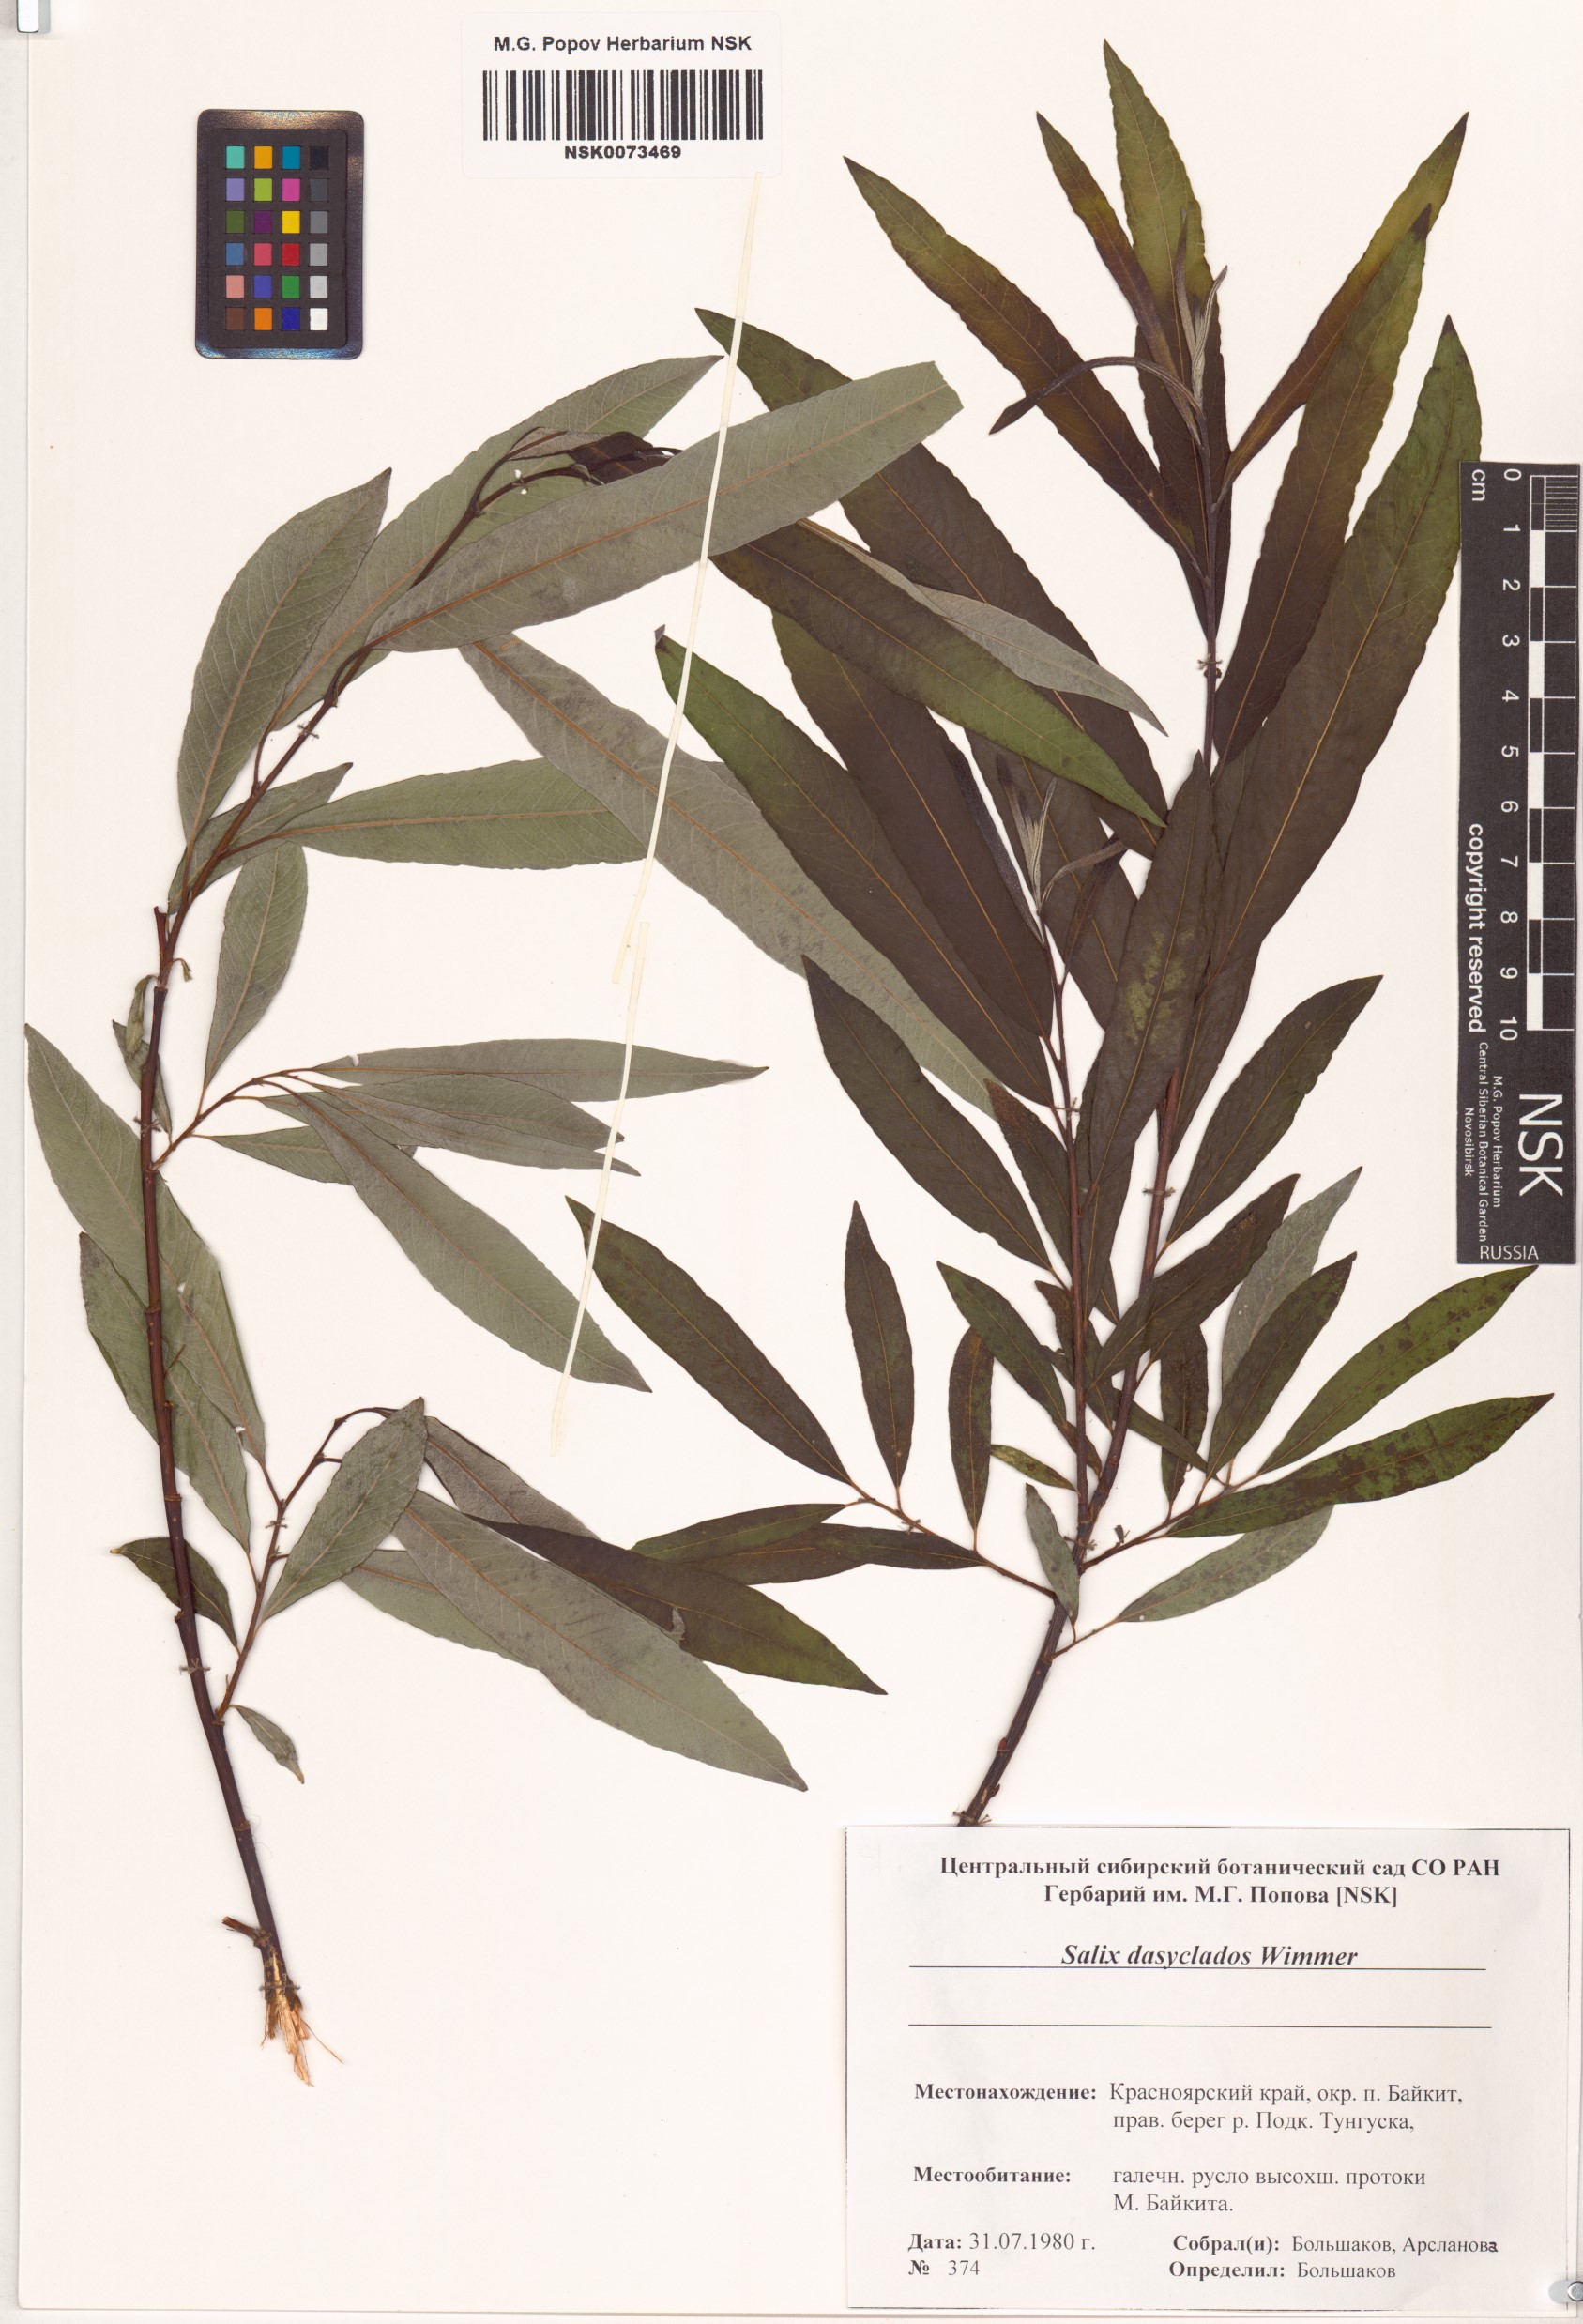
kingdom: Plantae
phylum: Tracheophyta
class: Magnoliopsida
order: Malpighiales
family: Salicaceae
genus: Salix
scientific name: Salix gmelinii
